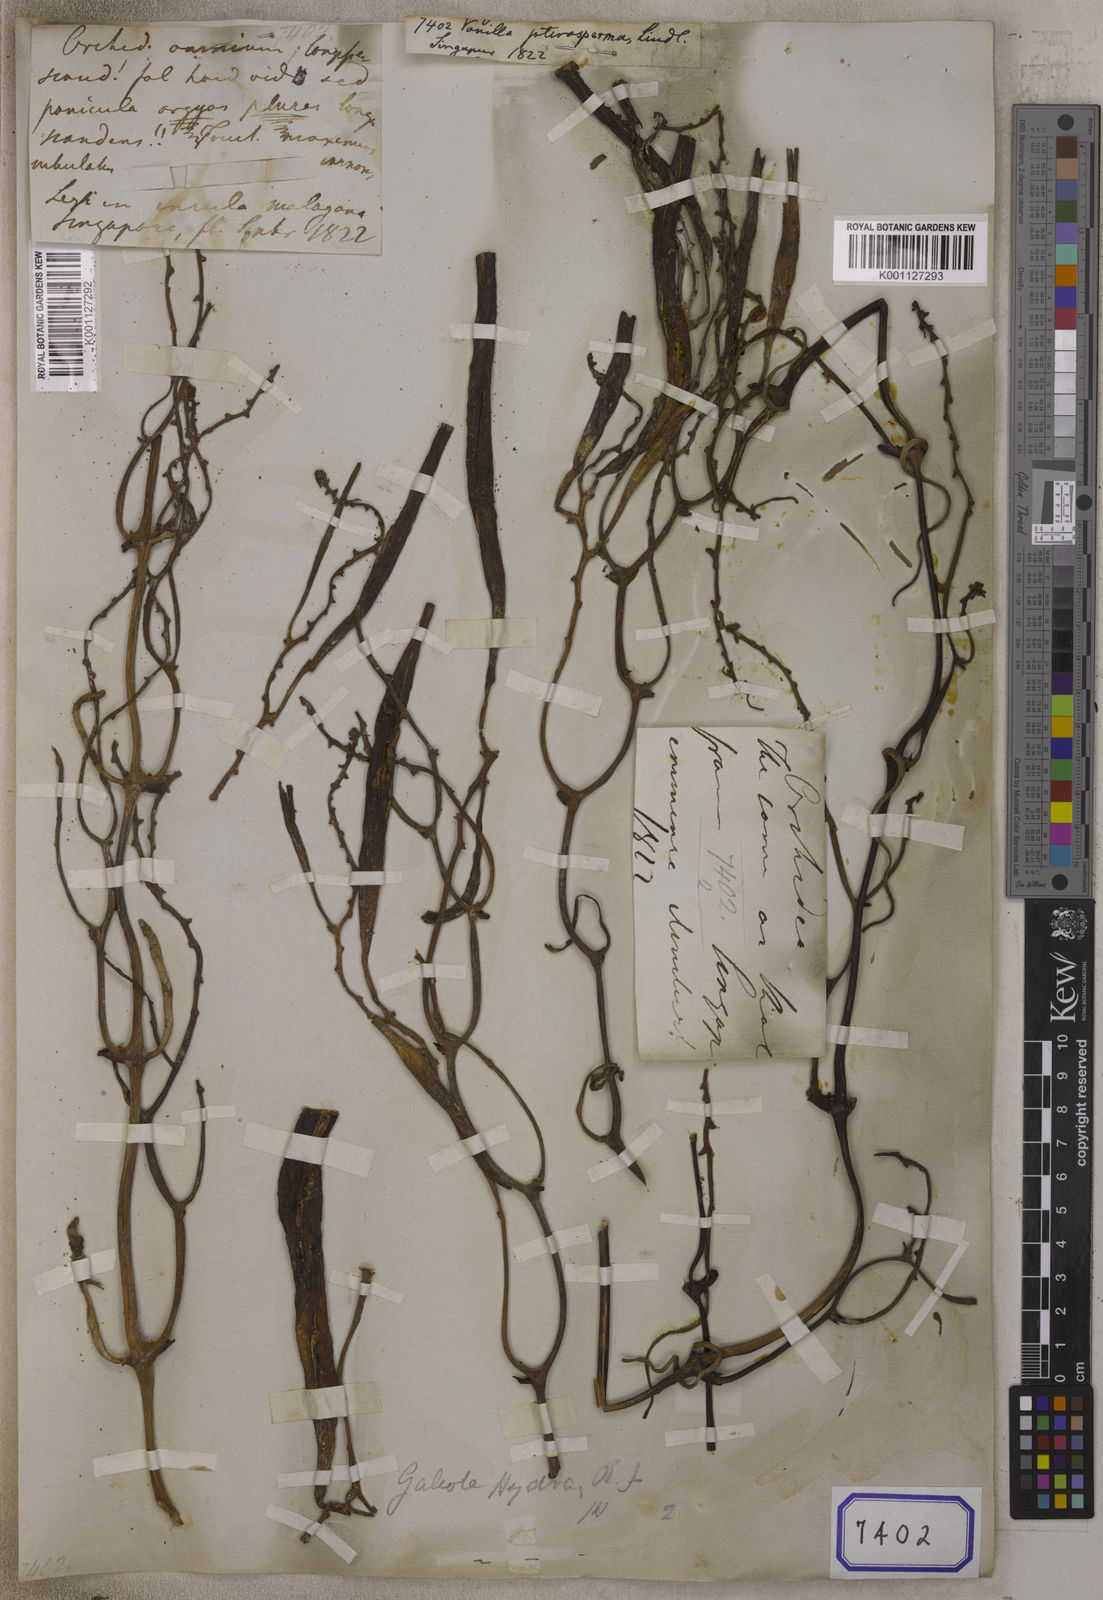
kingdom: Plantae
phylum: Tracheophyta
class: Liliopsida
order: Asparagales
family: Orchidaceae
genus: Vanilla
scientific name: Vanilla
